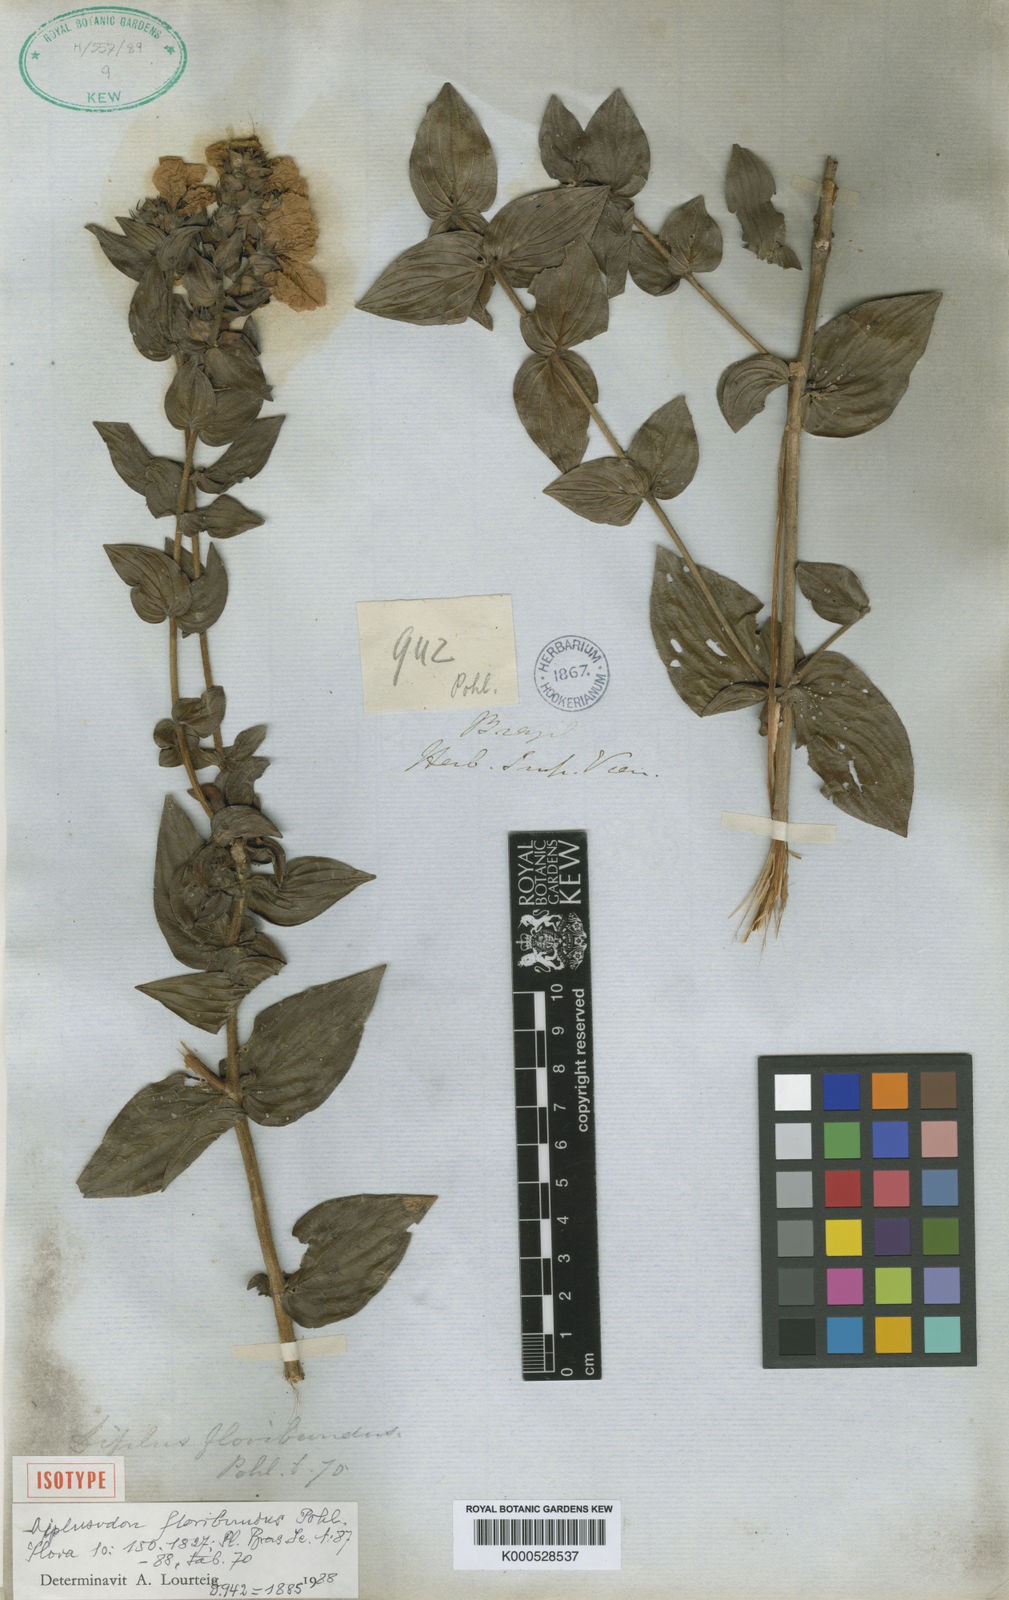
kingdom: Plantae
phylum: Tracheophyta
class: Magnoliopsida
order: Myrtales
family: Lythraceae
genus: Diplusodon
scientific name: Diplusodon floribundus
